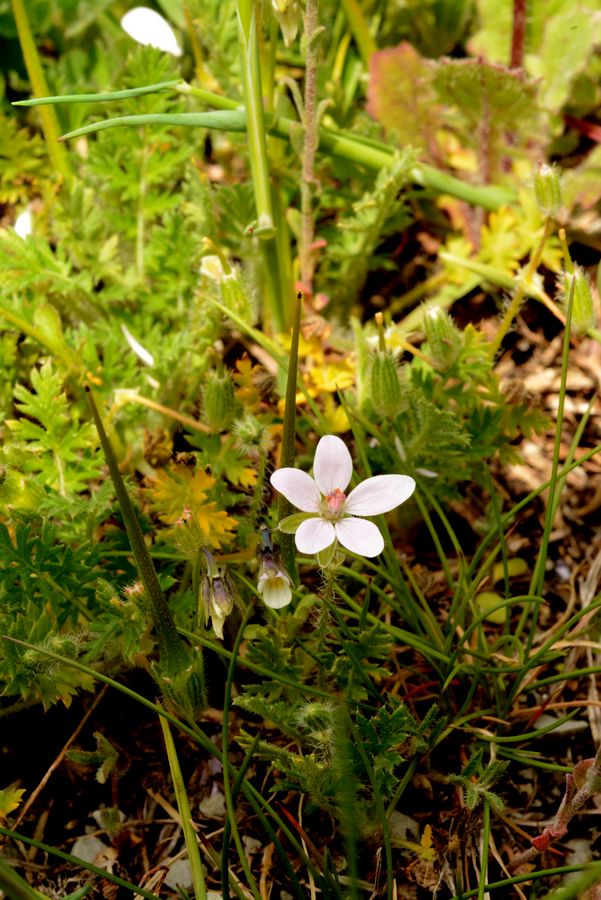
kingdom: Plantae
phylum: Tracheophyta
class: Magnoliopsida
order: Geraniales
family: Geraniaceae
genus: Erodium
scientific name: Erodium ciconium
